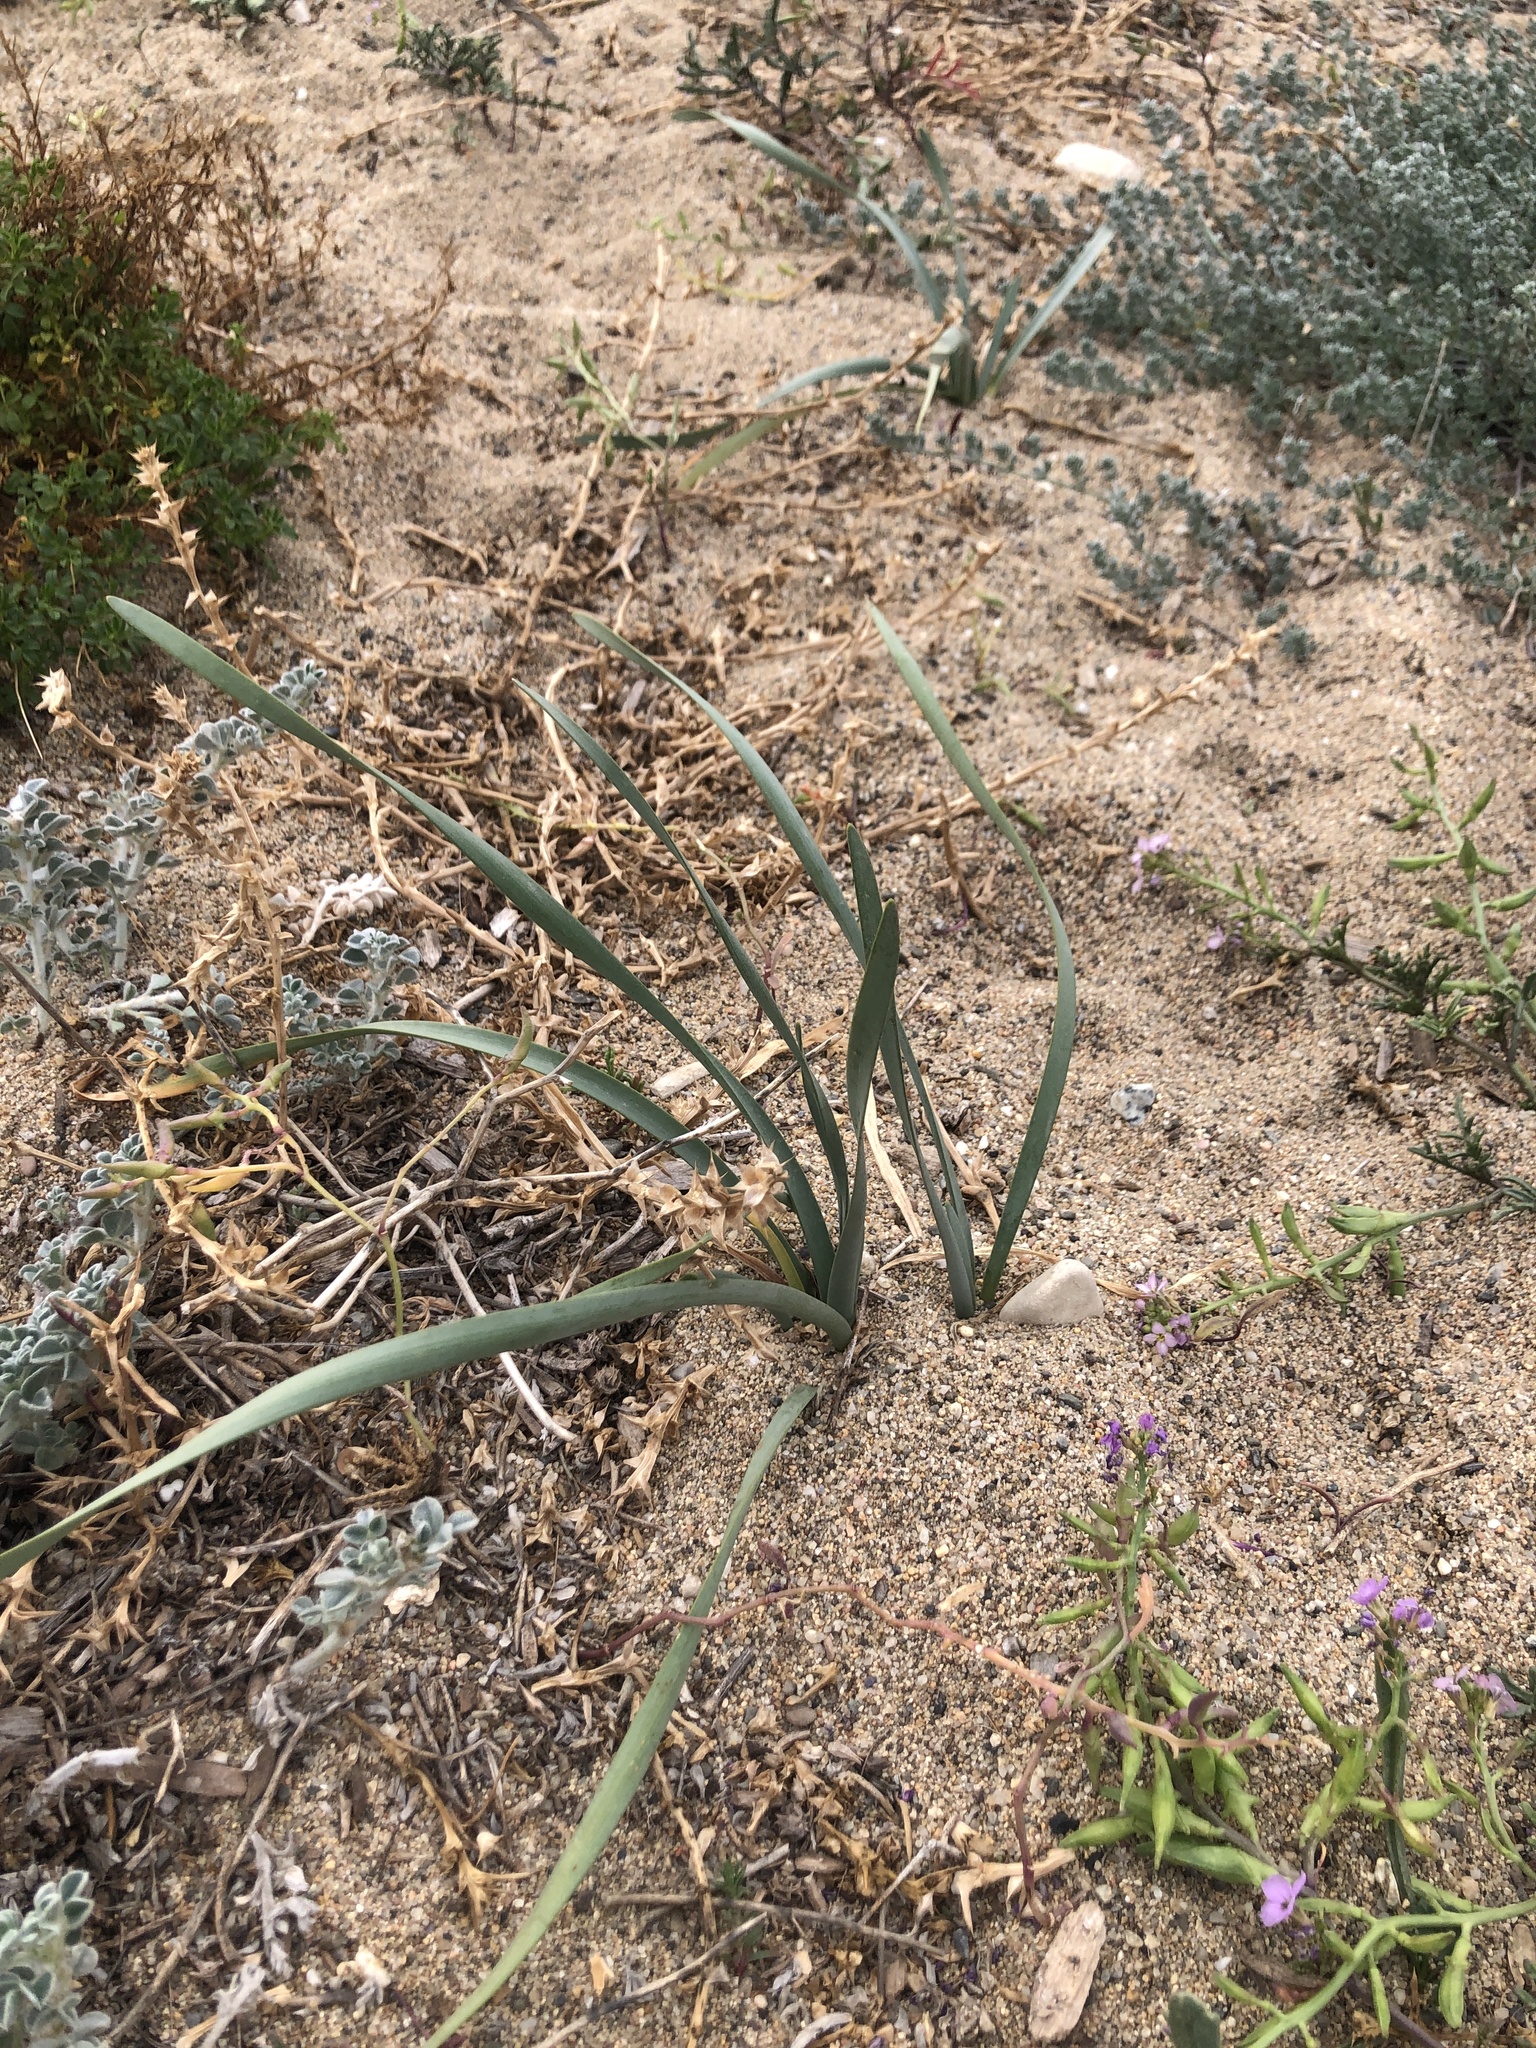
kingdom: Plantae
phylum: Tracheophyta
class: Liliopsida
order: Asparagales
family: Amaryllidaceae
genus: Pancratium
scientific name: Pancratium maritimum
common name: Sea-daffodil
